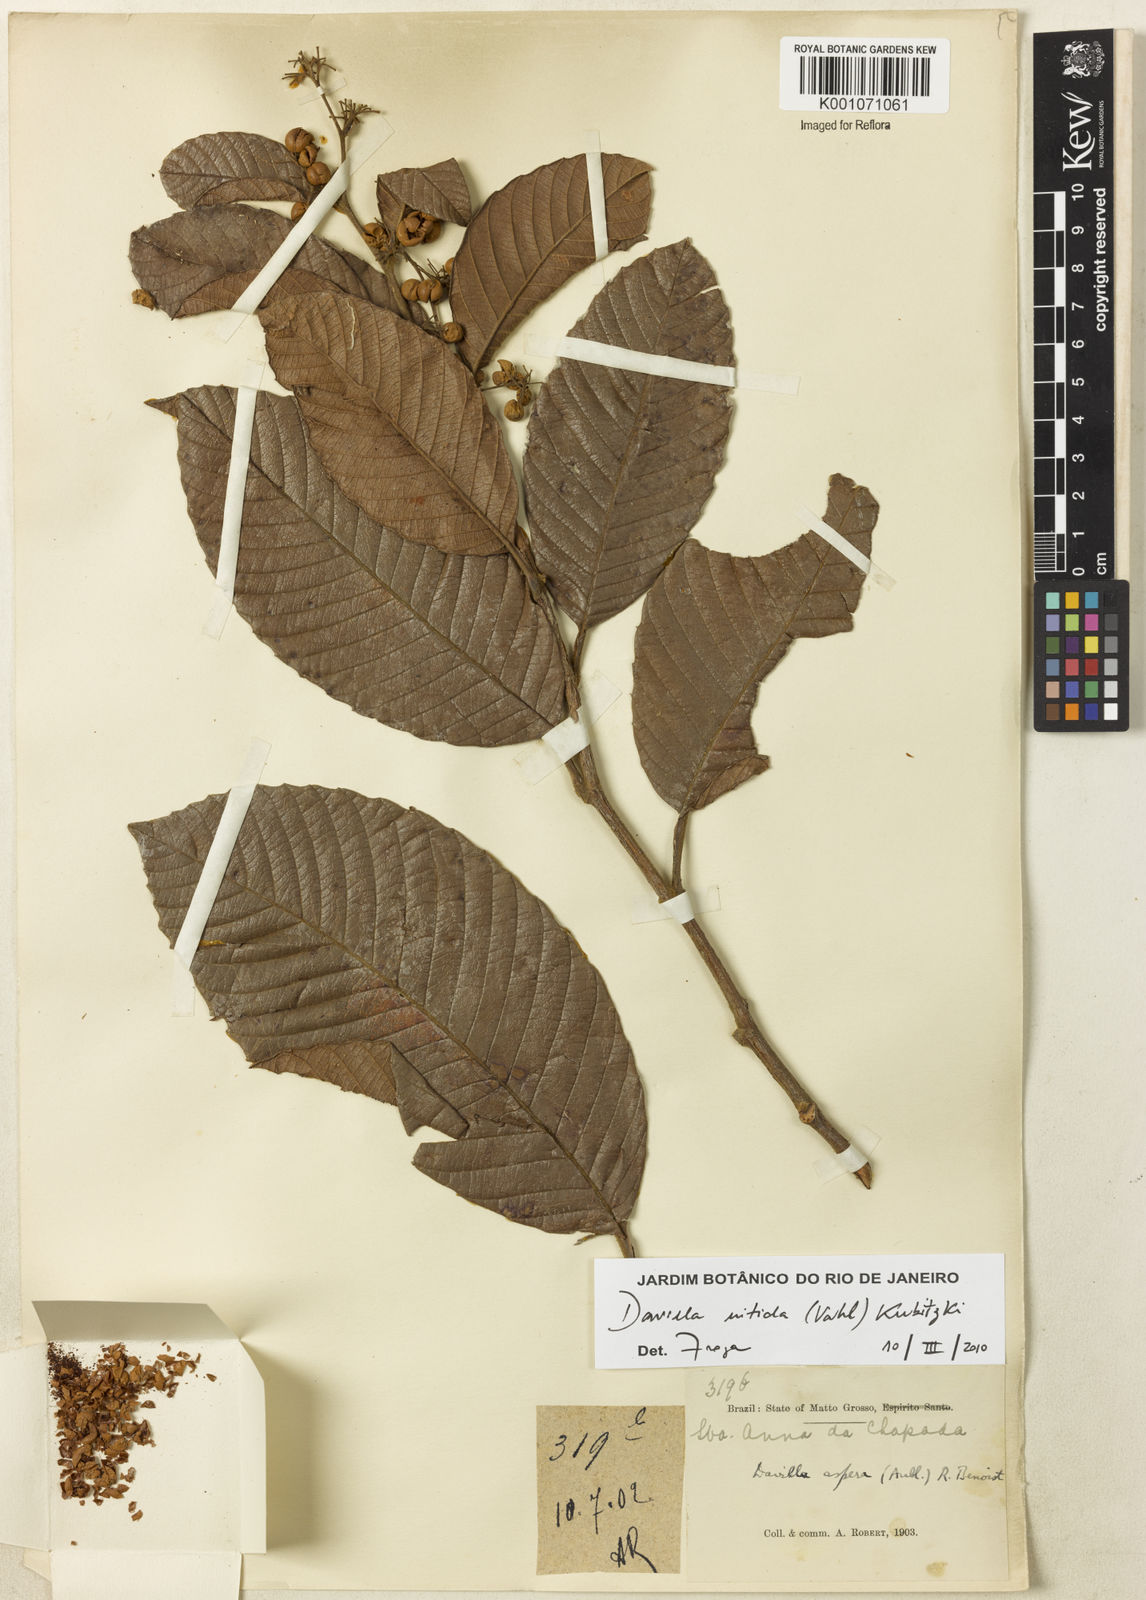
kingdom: Plantae
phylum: Tracheophyta
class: Magnoliopsida
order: Dilleniales
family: Dilleniaceae
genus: Davilla
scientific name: Davilla kunthii
